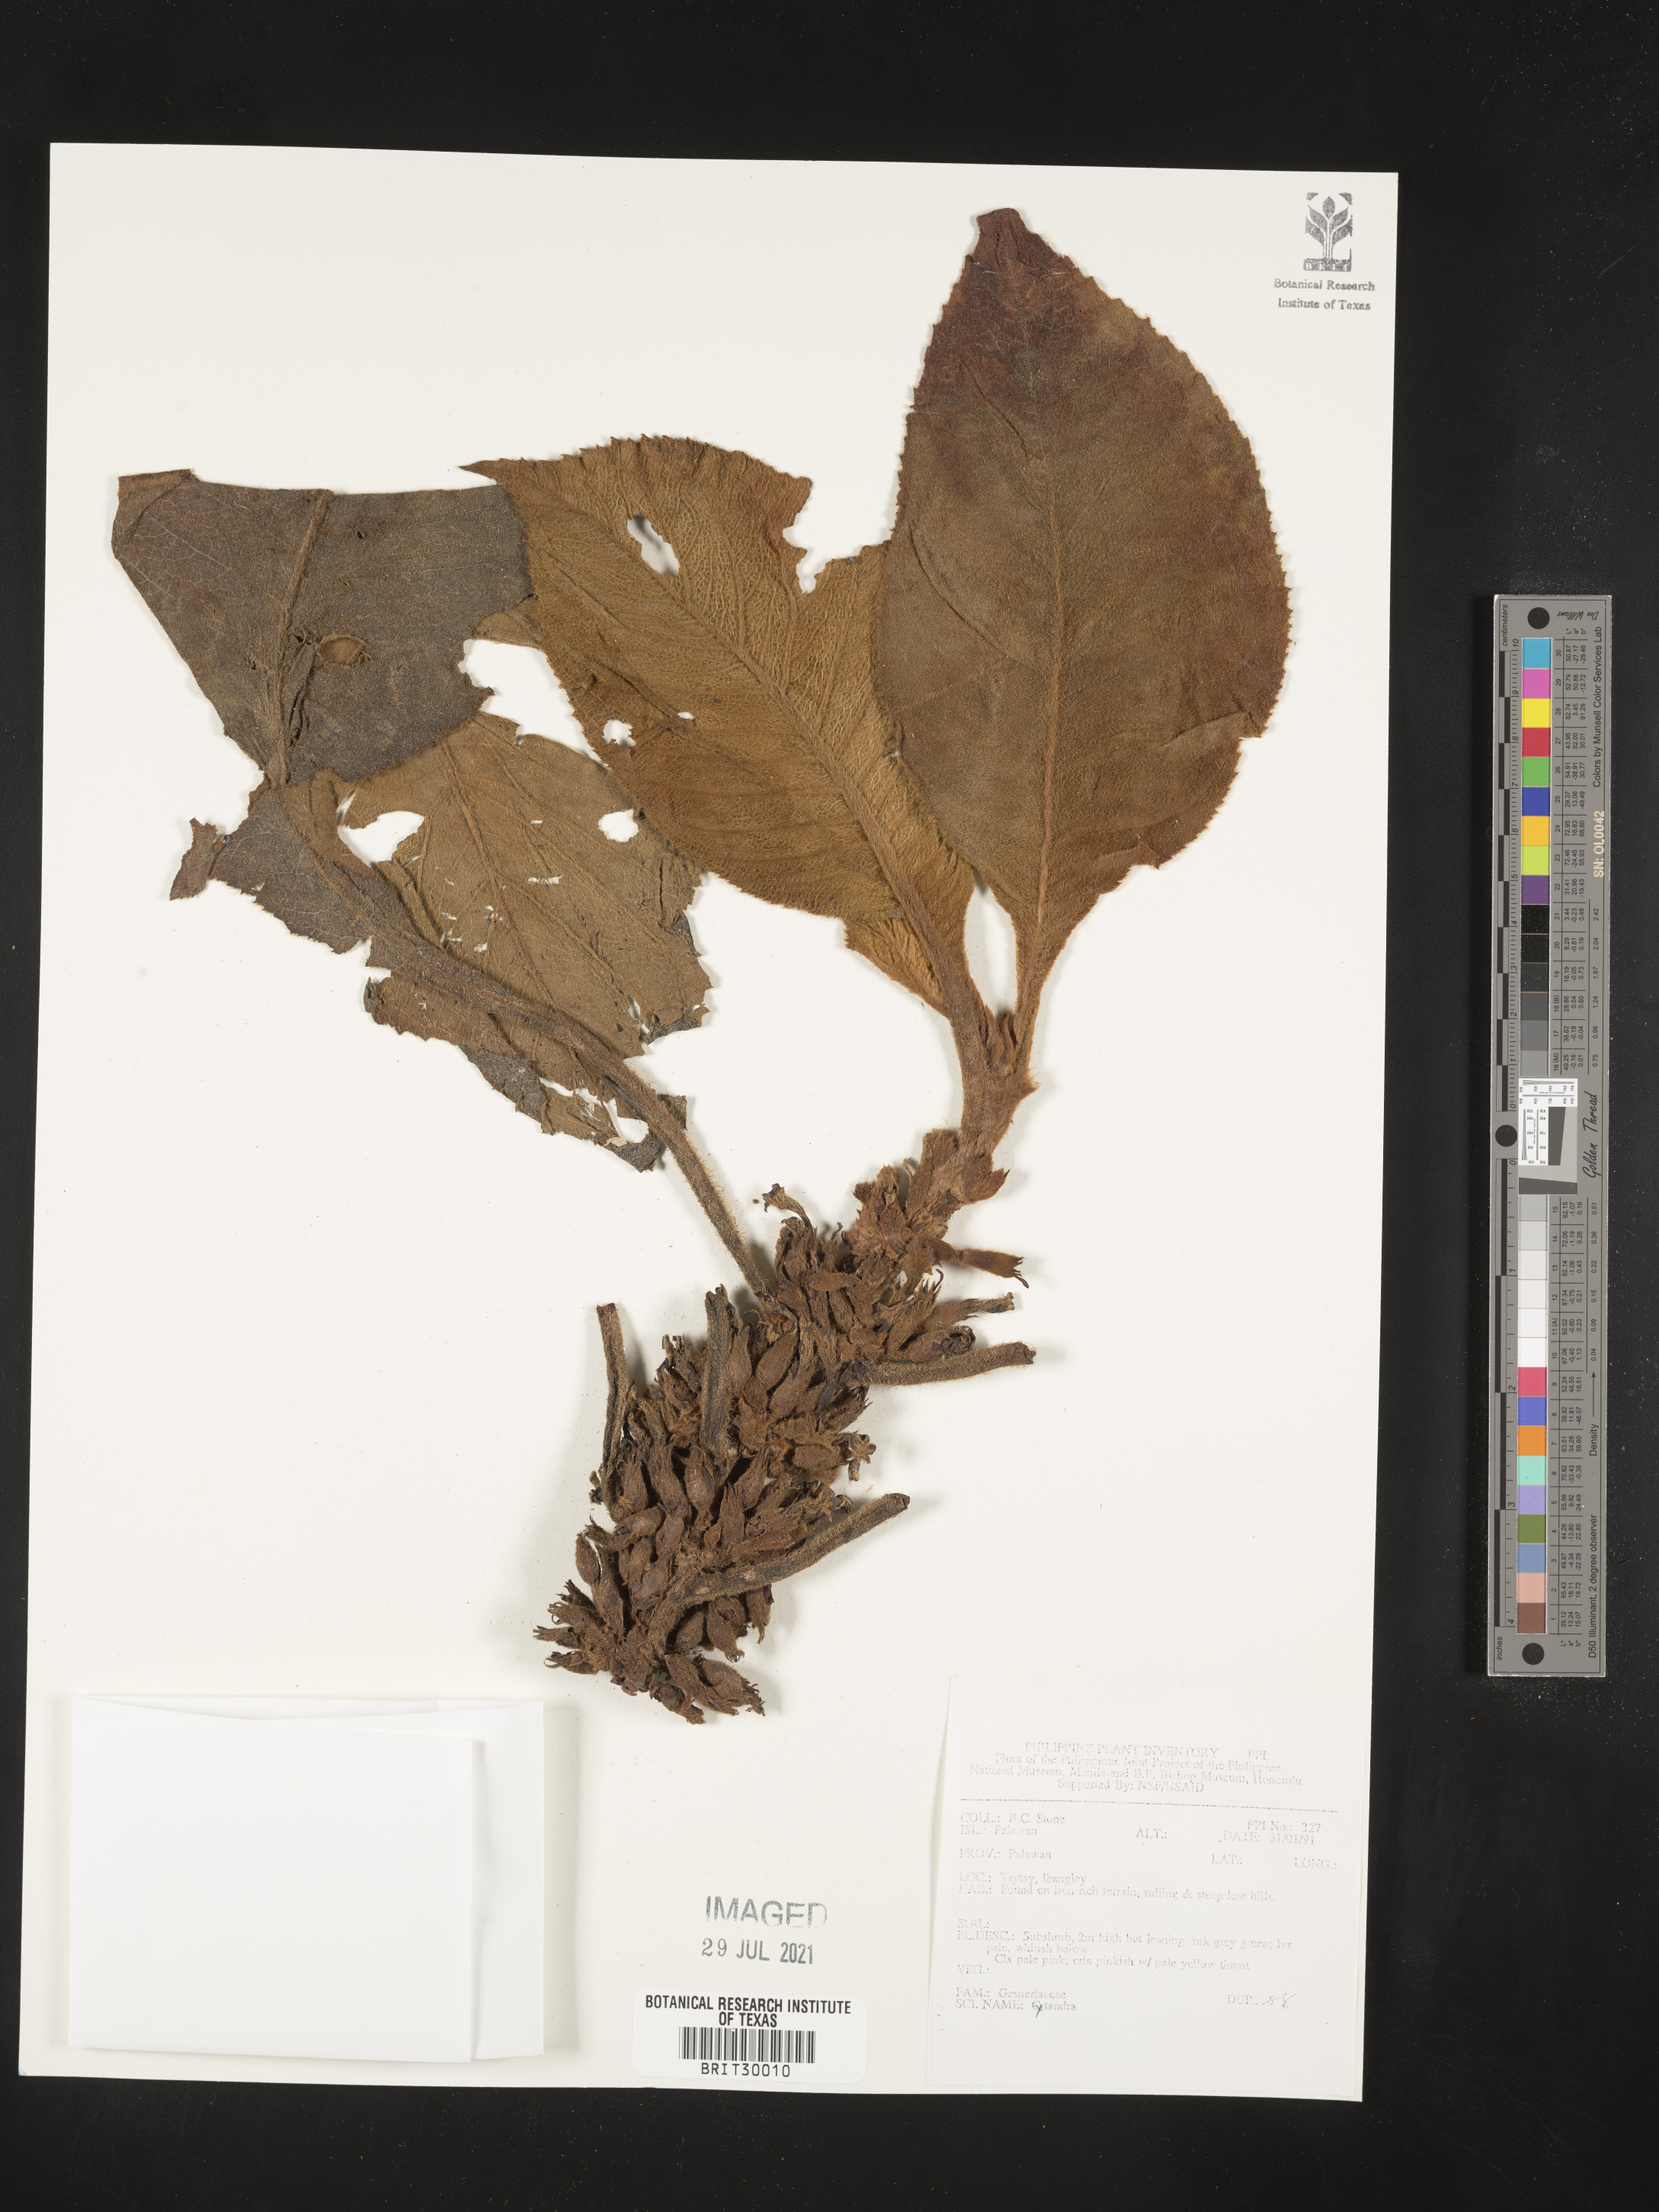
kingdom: Plantae
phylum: Tracheophyta
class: Magnoliopsida
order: Lamiales
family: Gesneriaceae
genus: Cyrtandra
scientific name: Cyrtandra
